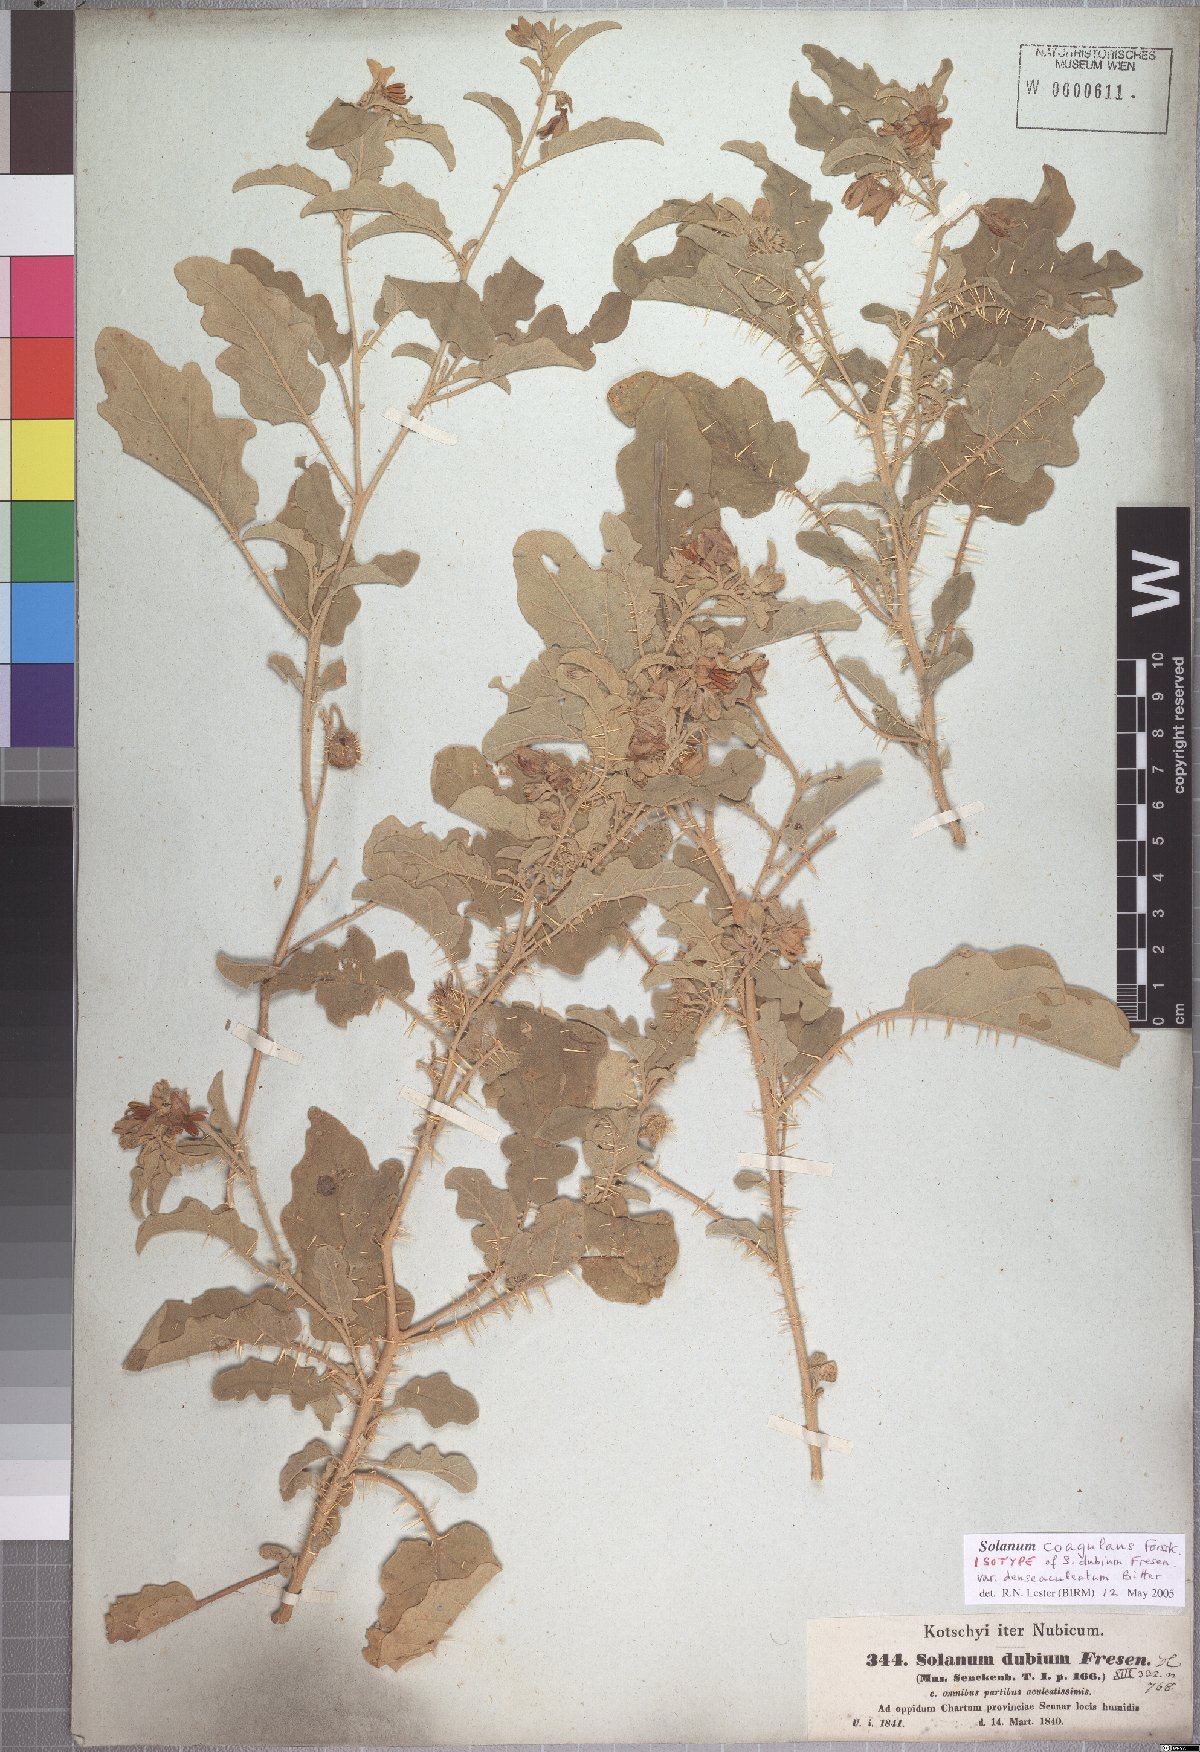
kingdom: Plantae
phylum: Tracheophyta
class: Magnoliopsida
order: Solanales
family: Solanaceae
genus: Solanum
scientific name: Solanum coagulans
